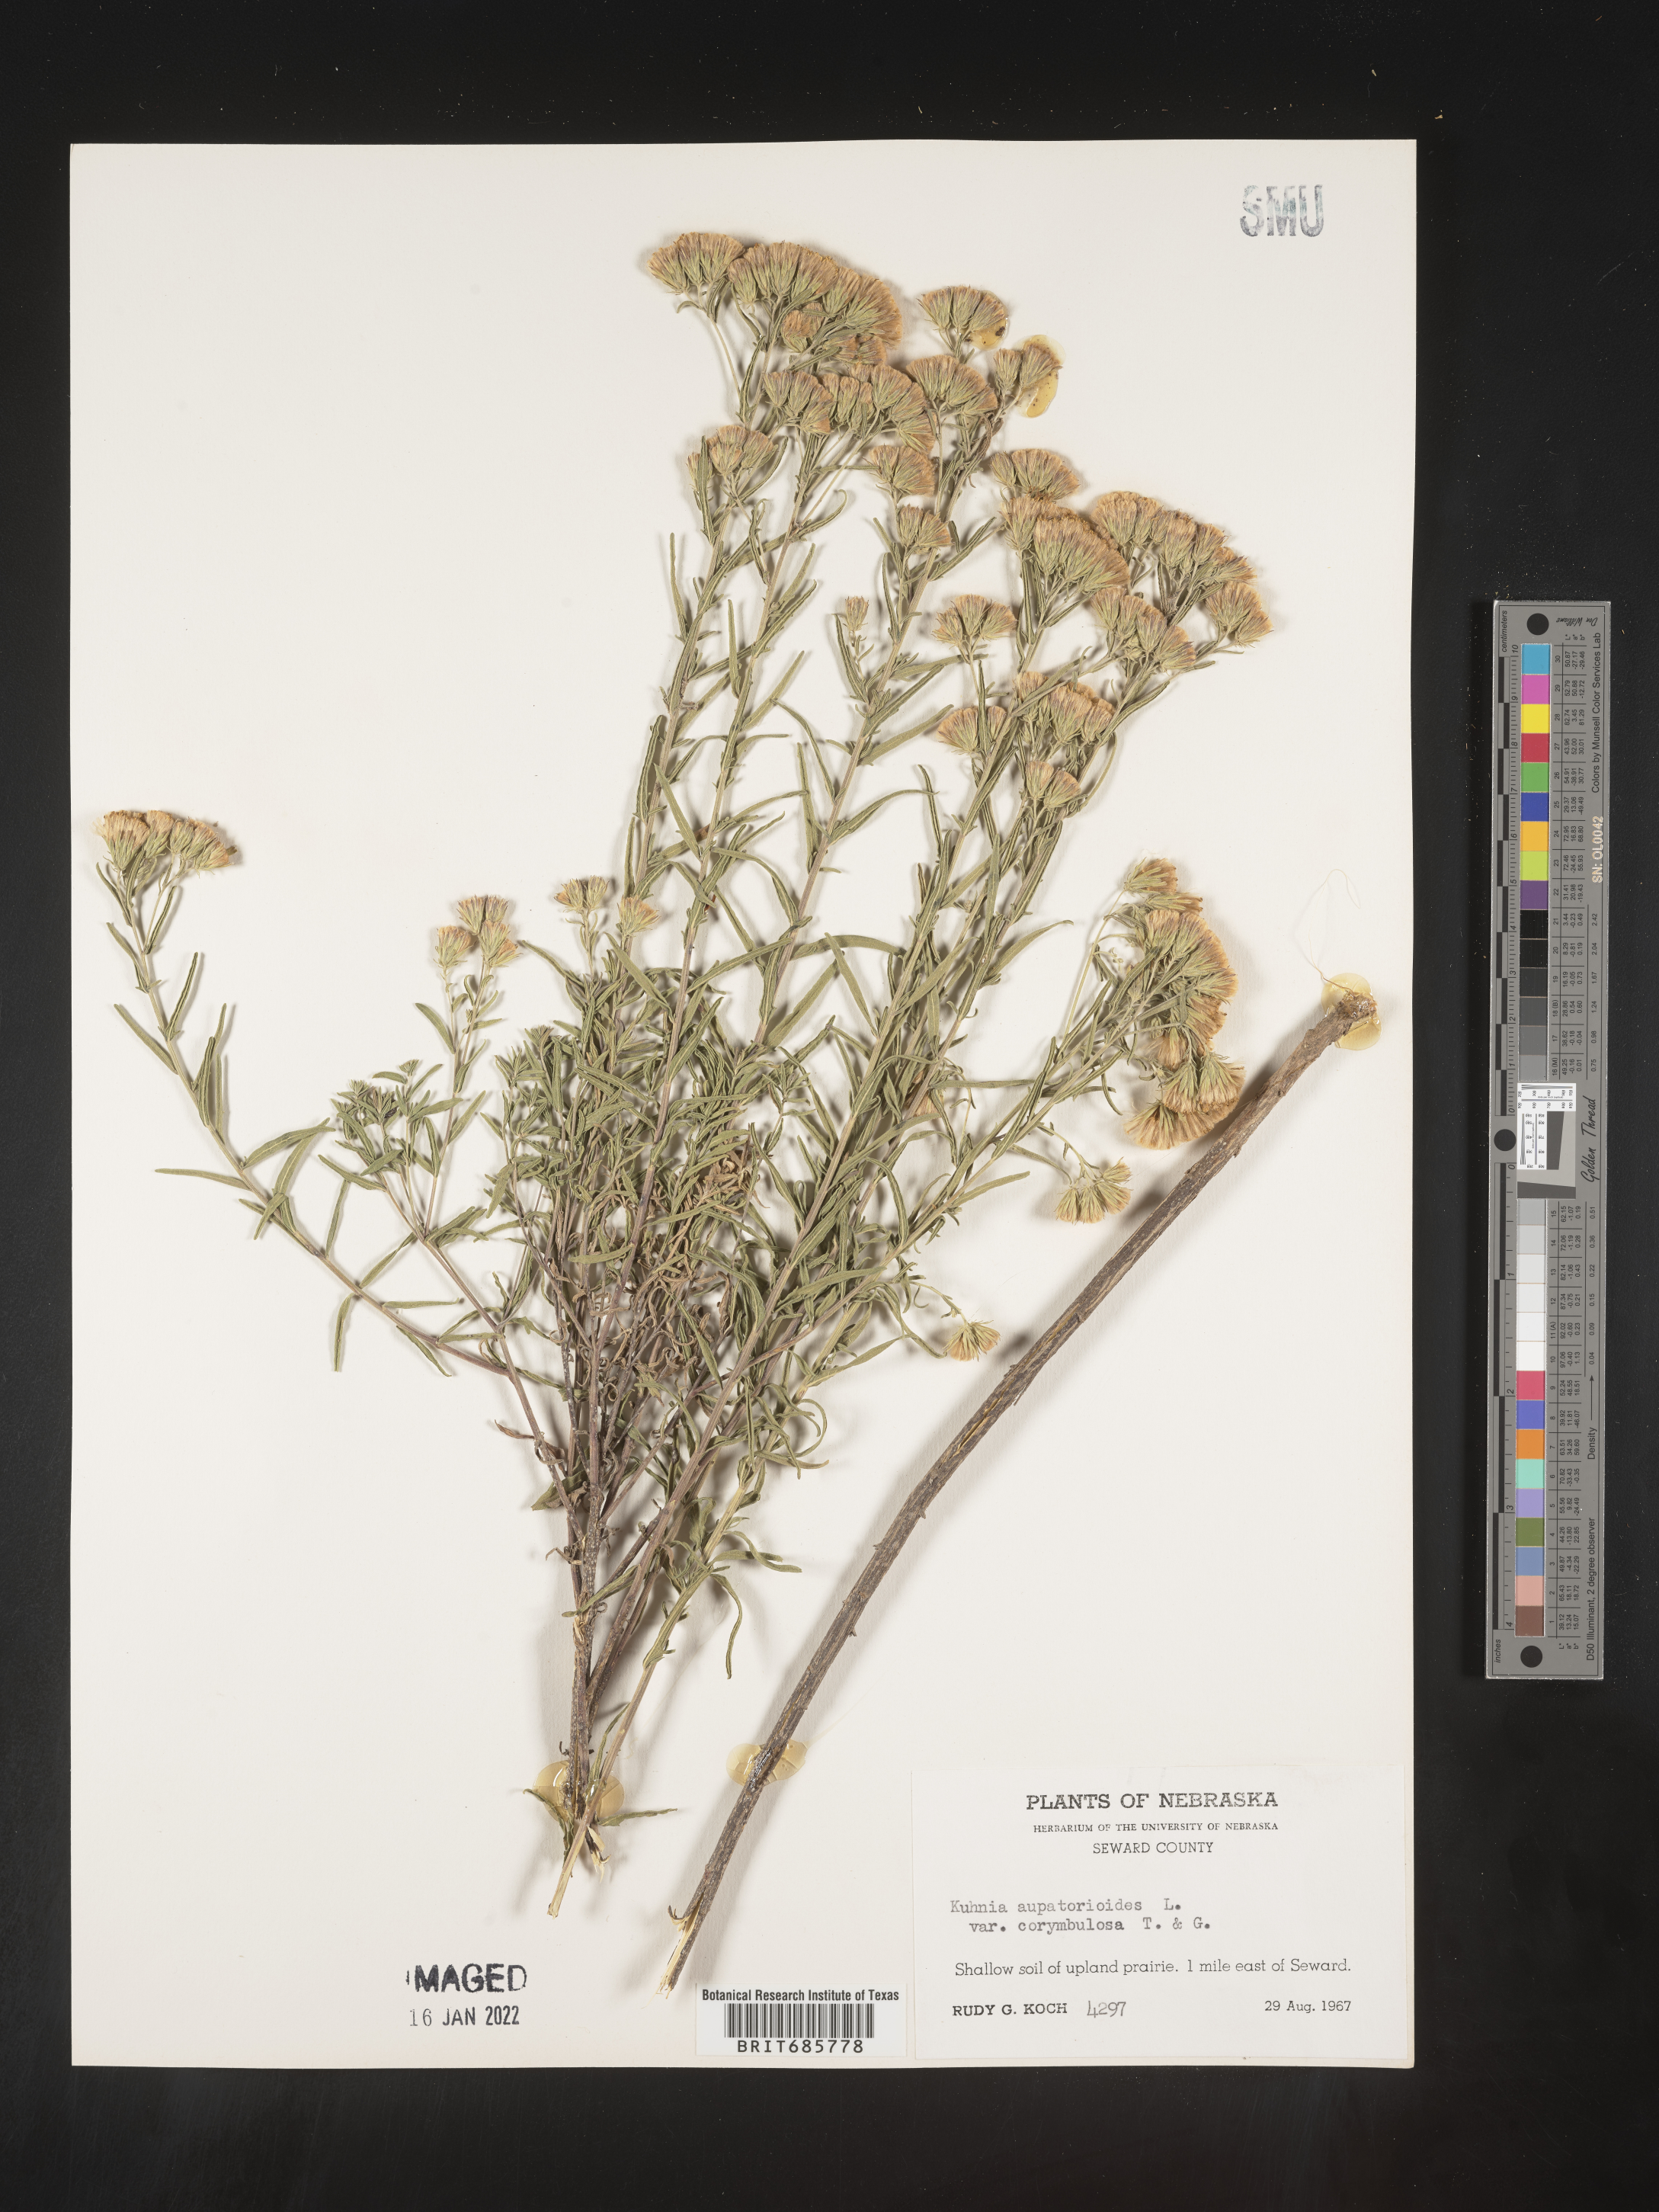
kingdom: Plantae
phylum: Tracheophyta
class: Magnoliopsida
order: Asterales
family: Asteraceae
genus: Brickellia
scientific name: Brickellia eupatorioides
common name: False boneset
